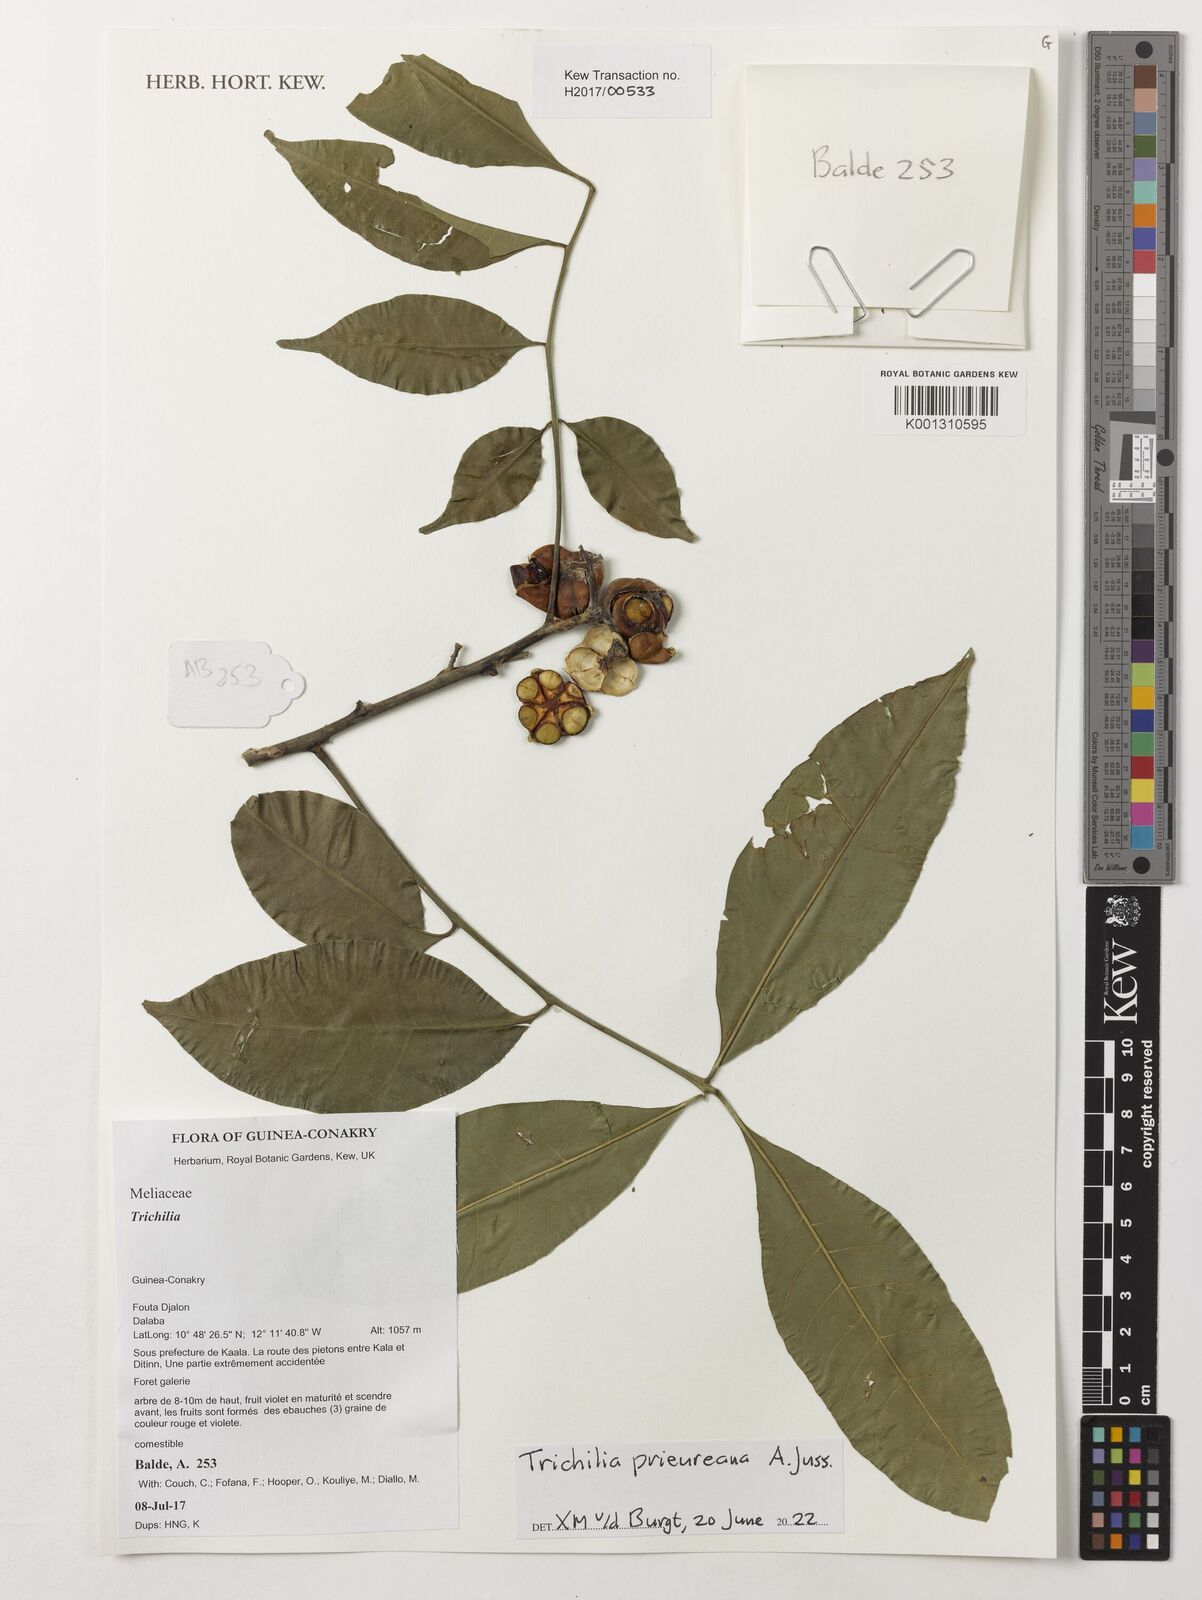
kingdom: Plantae
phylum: Tracheophyta
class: Magnoliopsida
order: Sapindales
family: Meliaceae
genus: Trichilia
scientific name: Trichilia prieuriana
